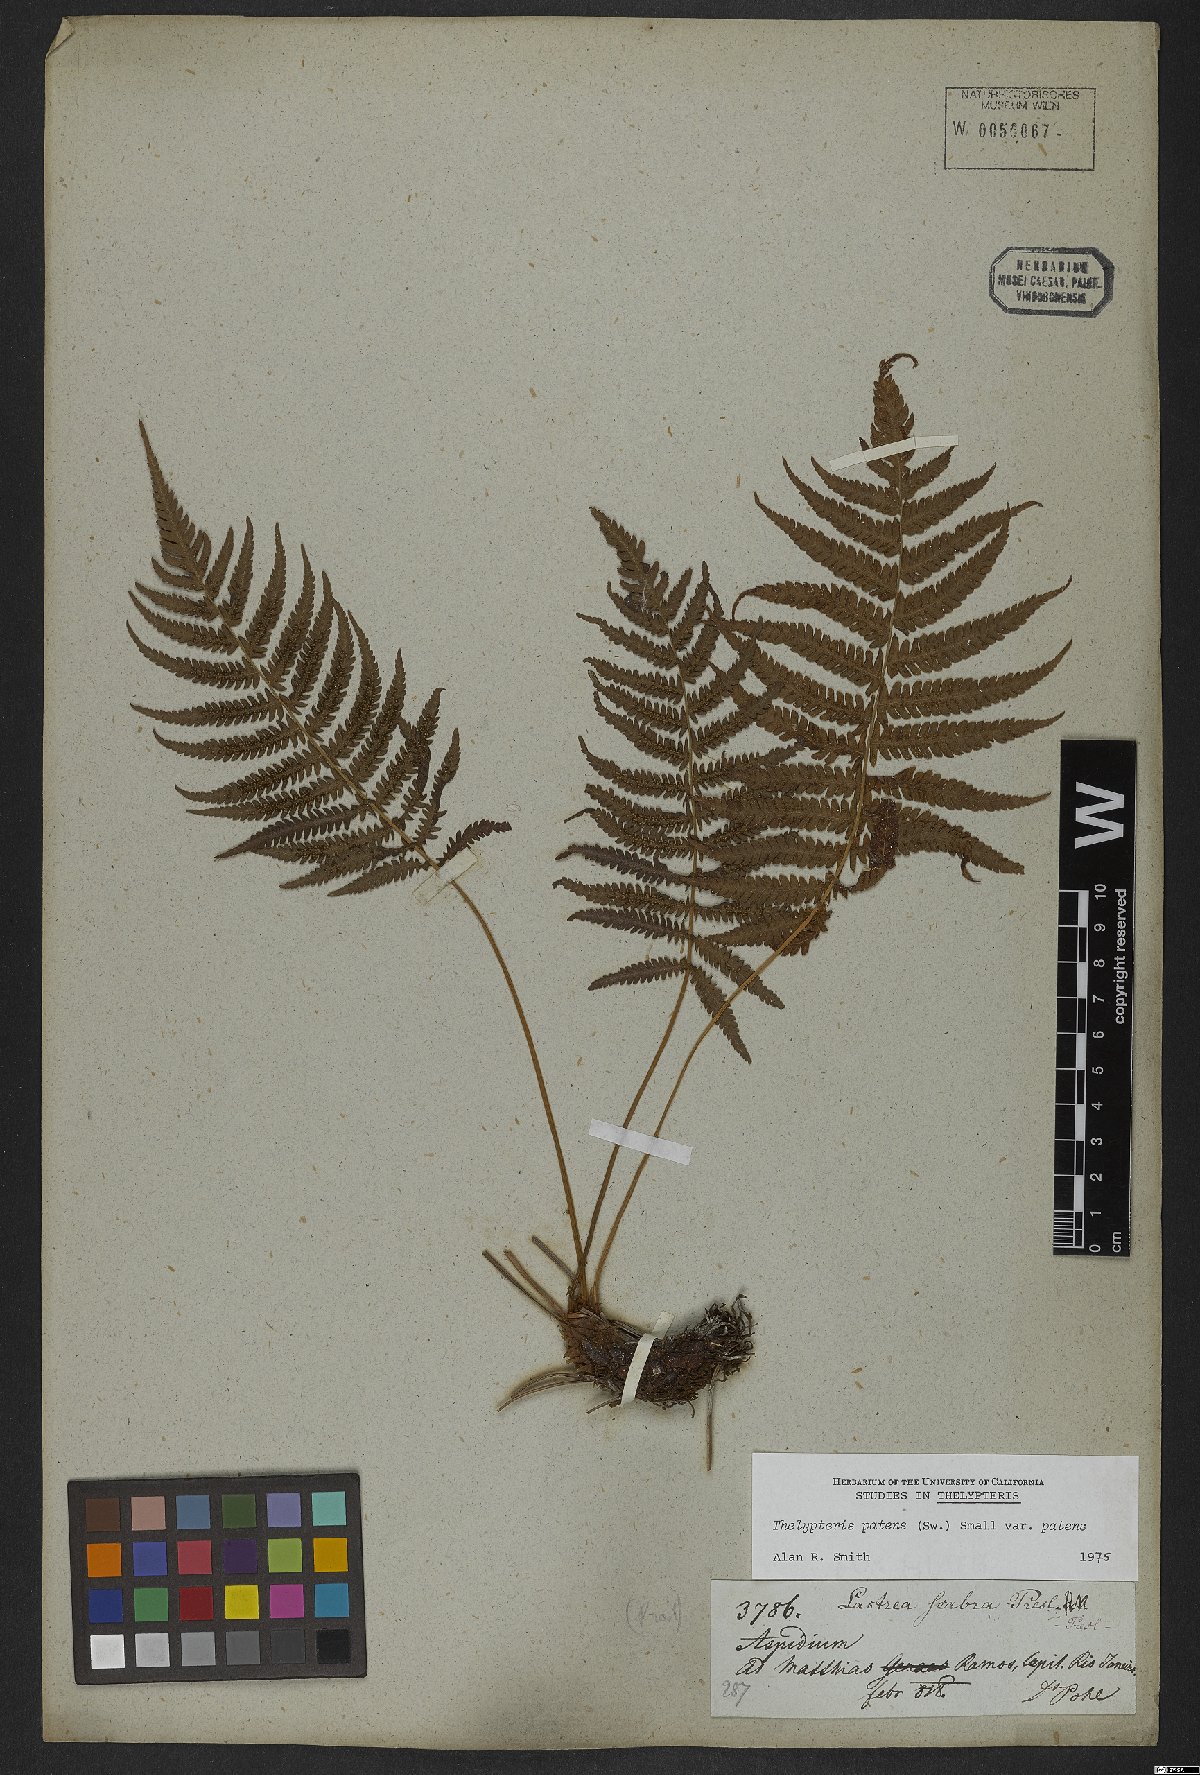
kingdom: Plantae
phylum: Tracheophyta
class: Polypodiopsida
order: Polypodiales
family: Thelypteridaceae
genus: Pelazoneuron
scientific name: Pelazoneuron patens
